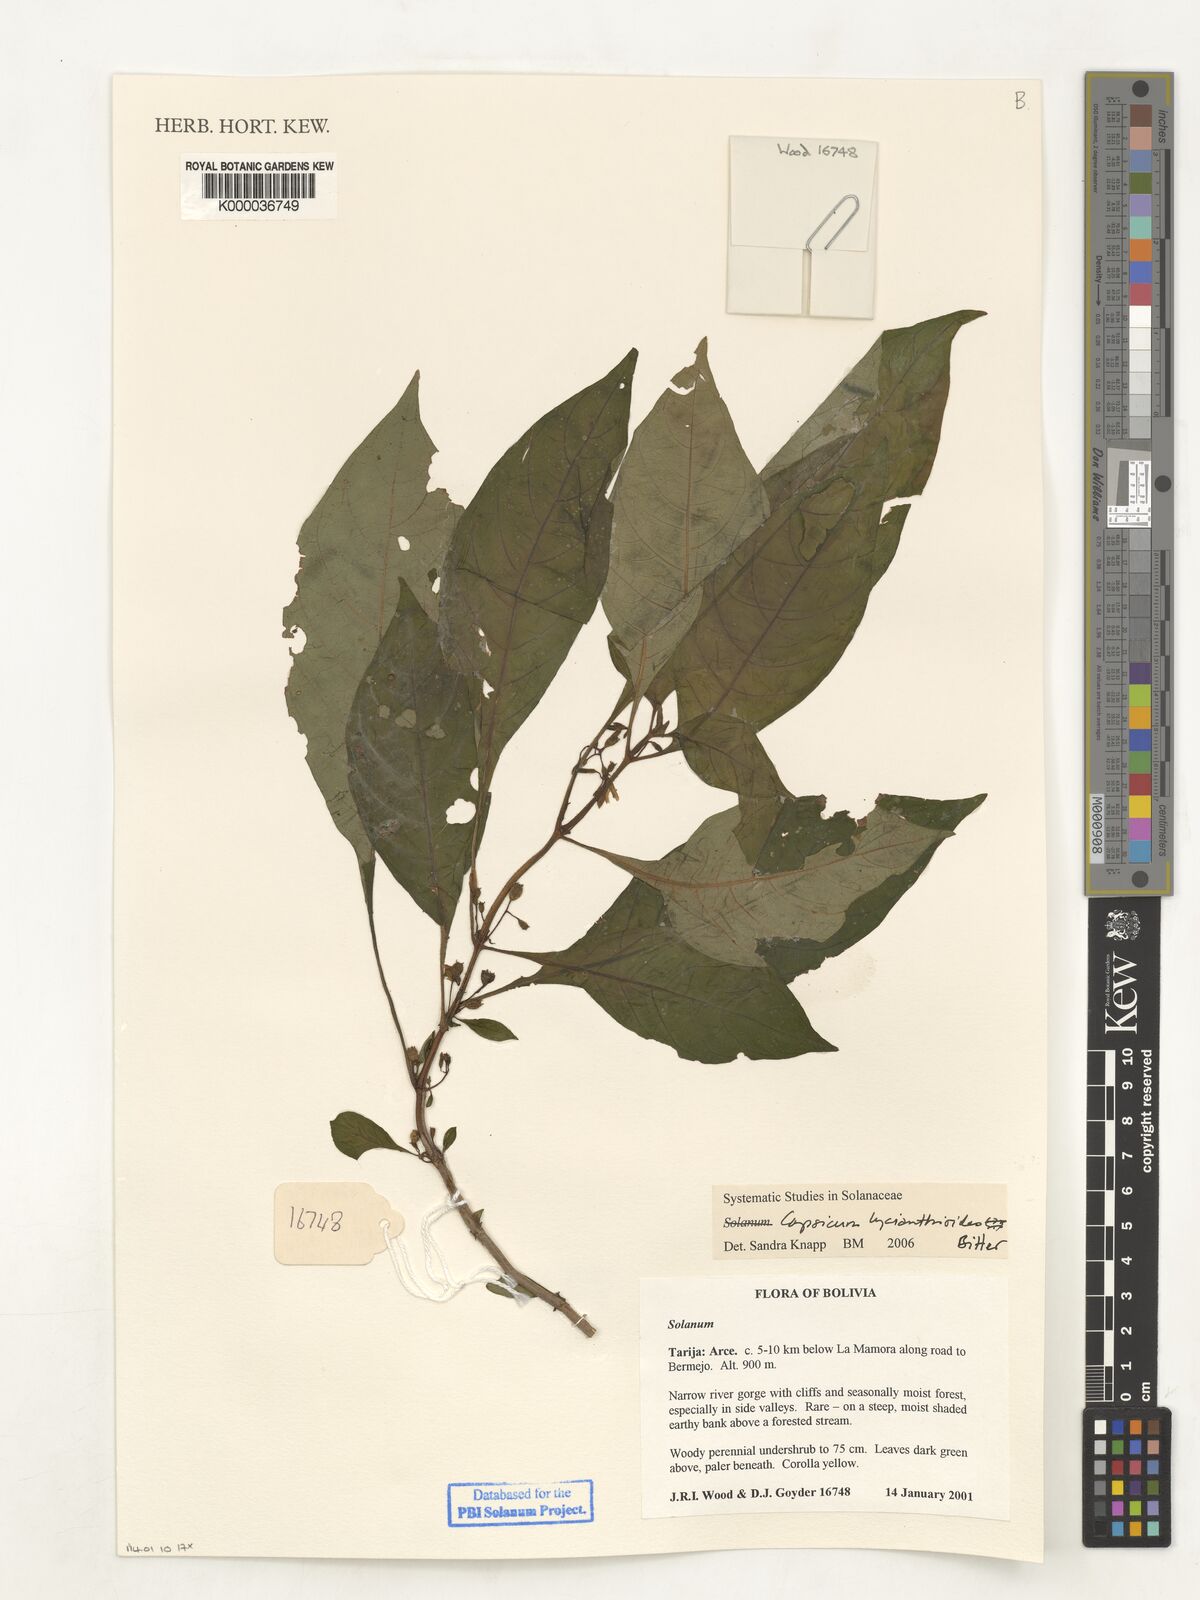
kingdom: Plantae
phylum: Tracheophyta
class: Magnoliopsida
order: Solanales
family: Solanaceae
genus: Capsicum
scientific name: Capsicum lycianthoides
